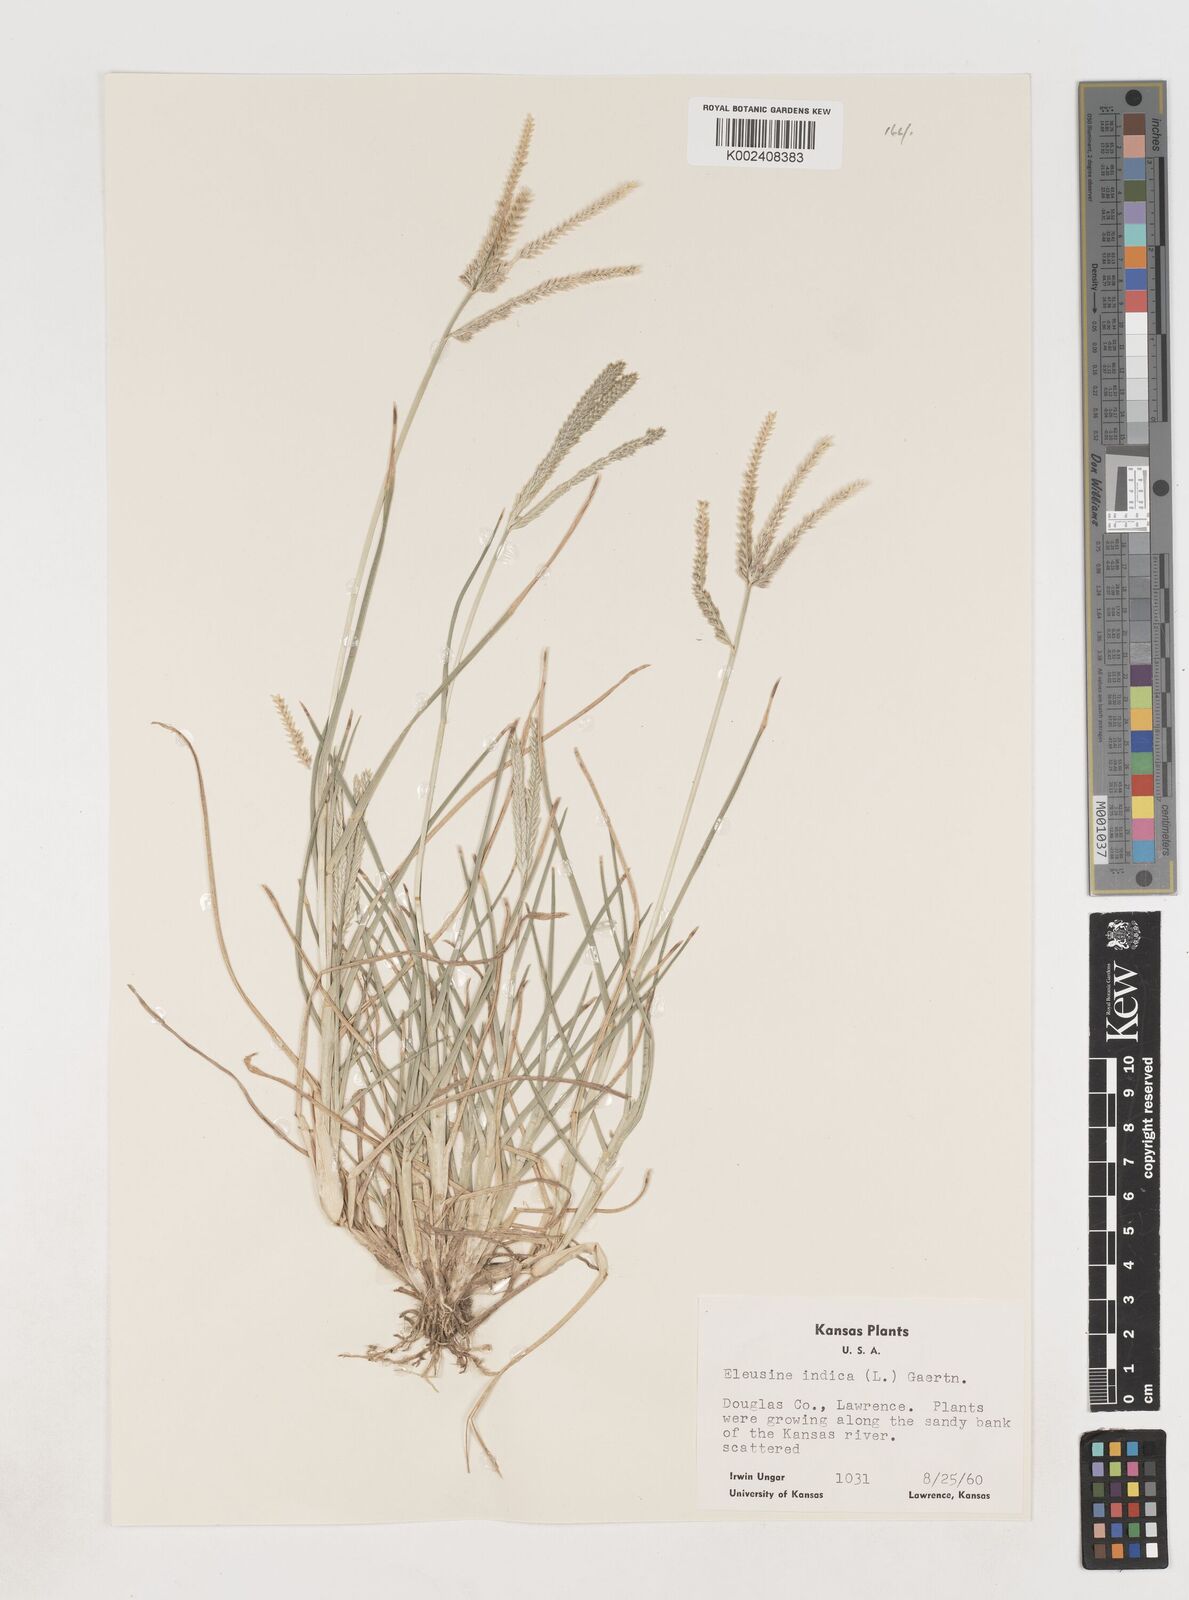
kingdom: Plantae
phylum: Tracheophyta
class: Liliopsida
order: Poales
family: Poaceae
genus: Eleusine
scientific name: Eleusine indica
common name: Yard-grass
